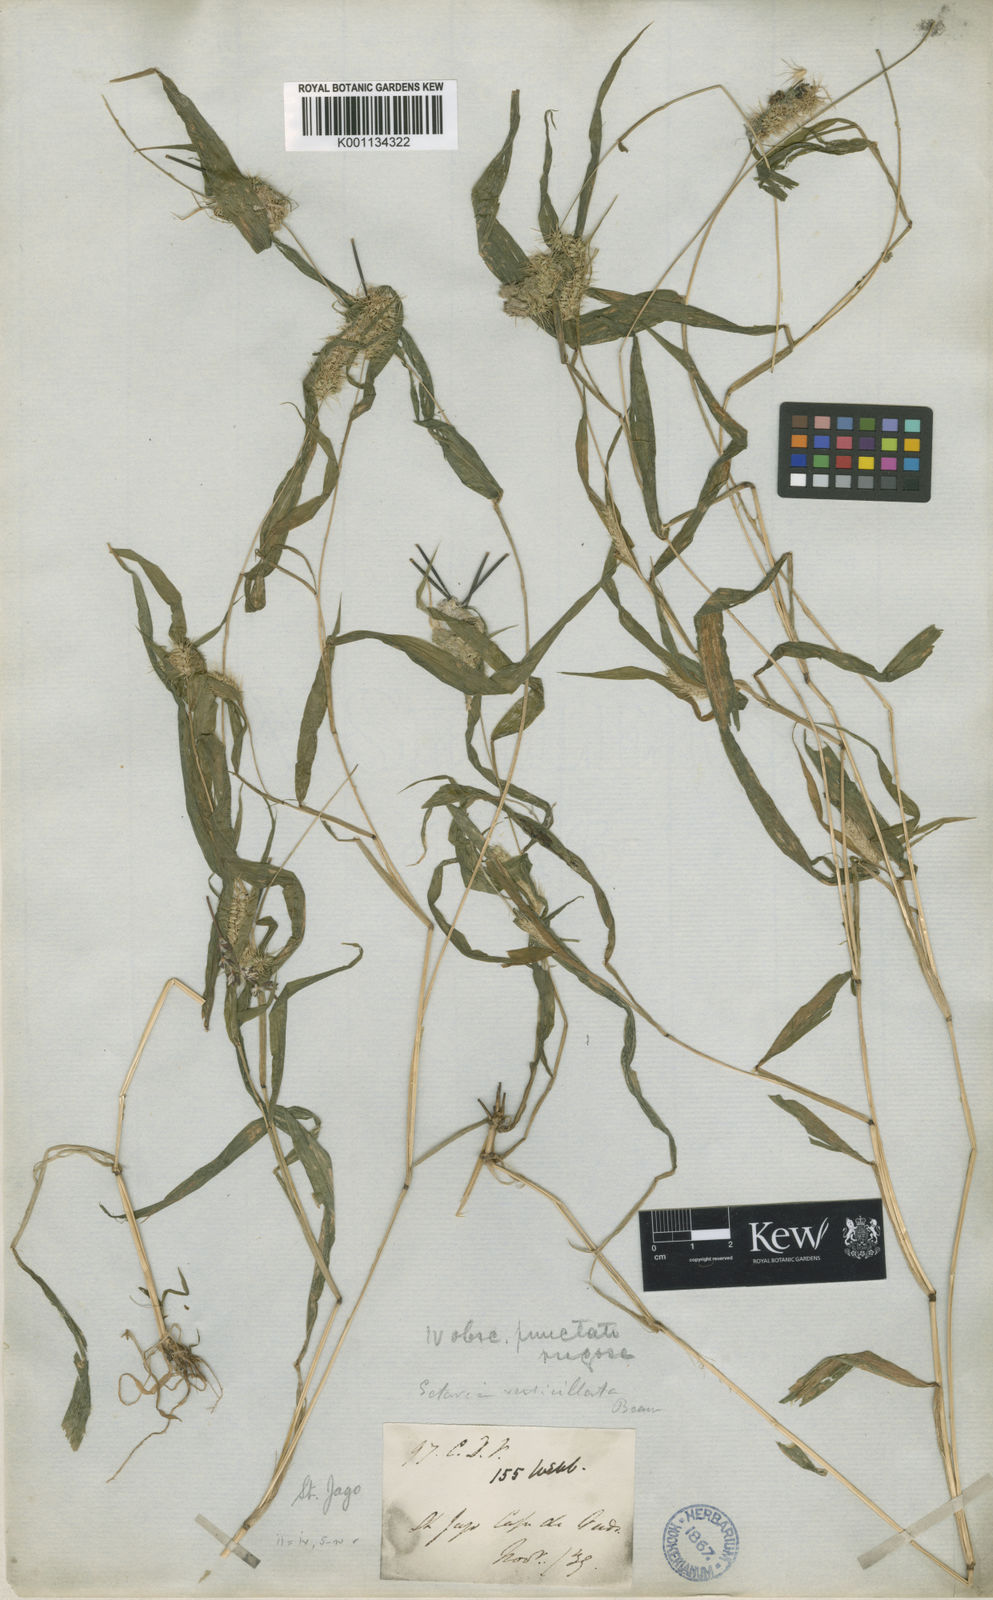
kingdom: Plantae
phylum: Tracheophyta
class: Liliopsida
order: Poales
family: Poaceae
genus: Setaria
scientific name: Setaria verticillata
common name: Hooked bristlegrass
